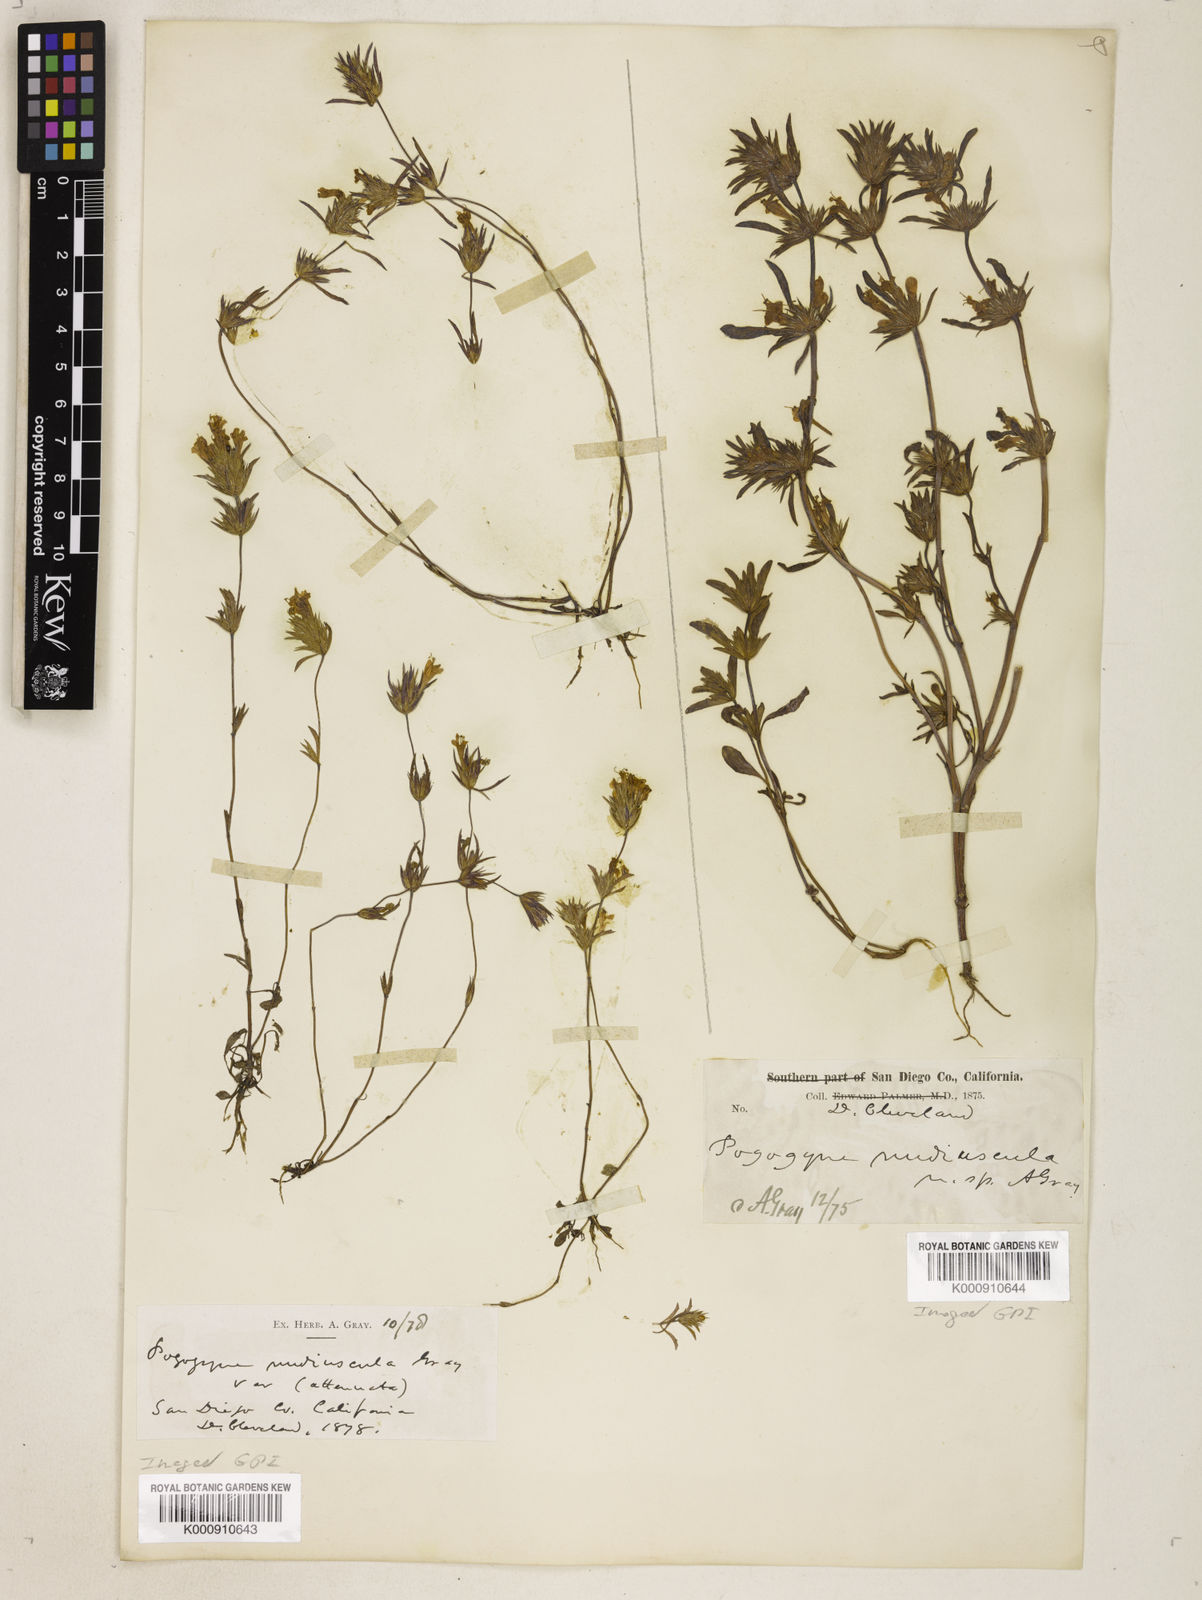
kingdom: Plantae
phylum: Tracheophyta
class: Magnoliopsida
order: Lamiales
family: Lamiaceae
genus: Pogogyne
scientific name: Pogogyne nudiuscula
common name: Otay mesa-mint
